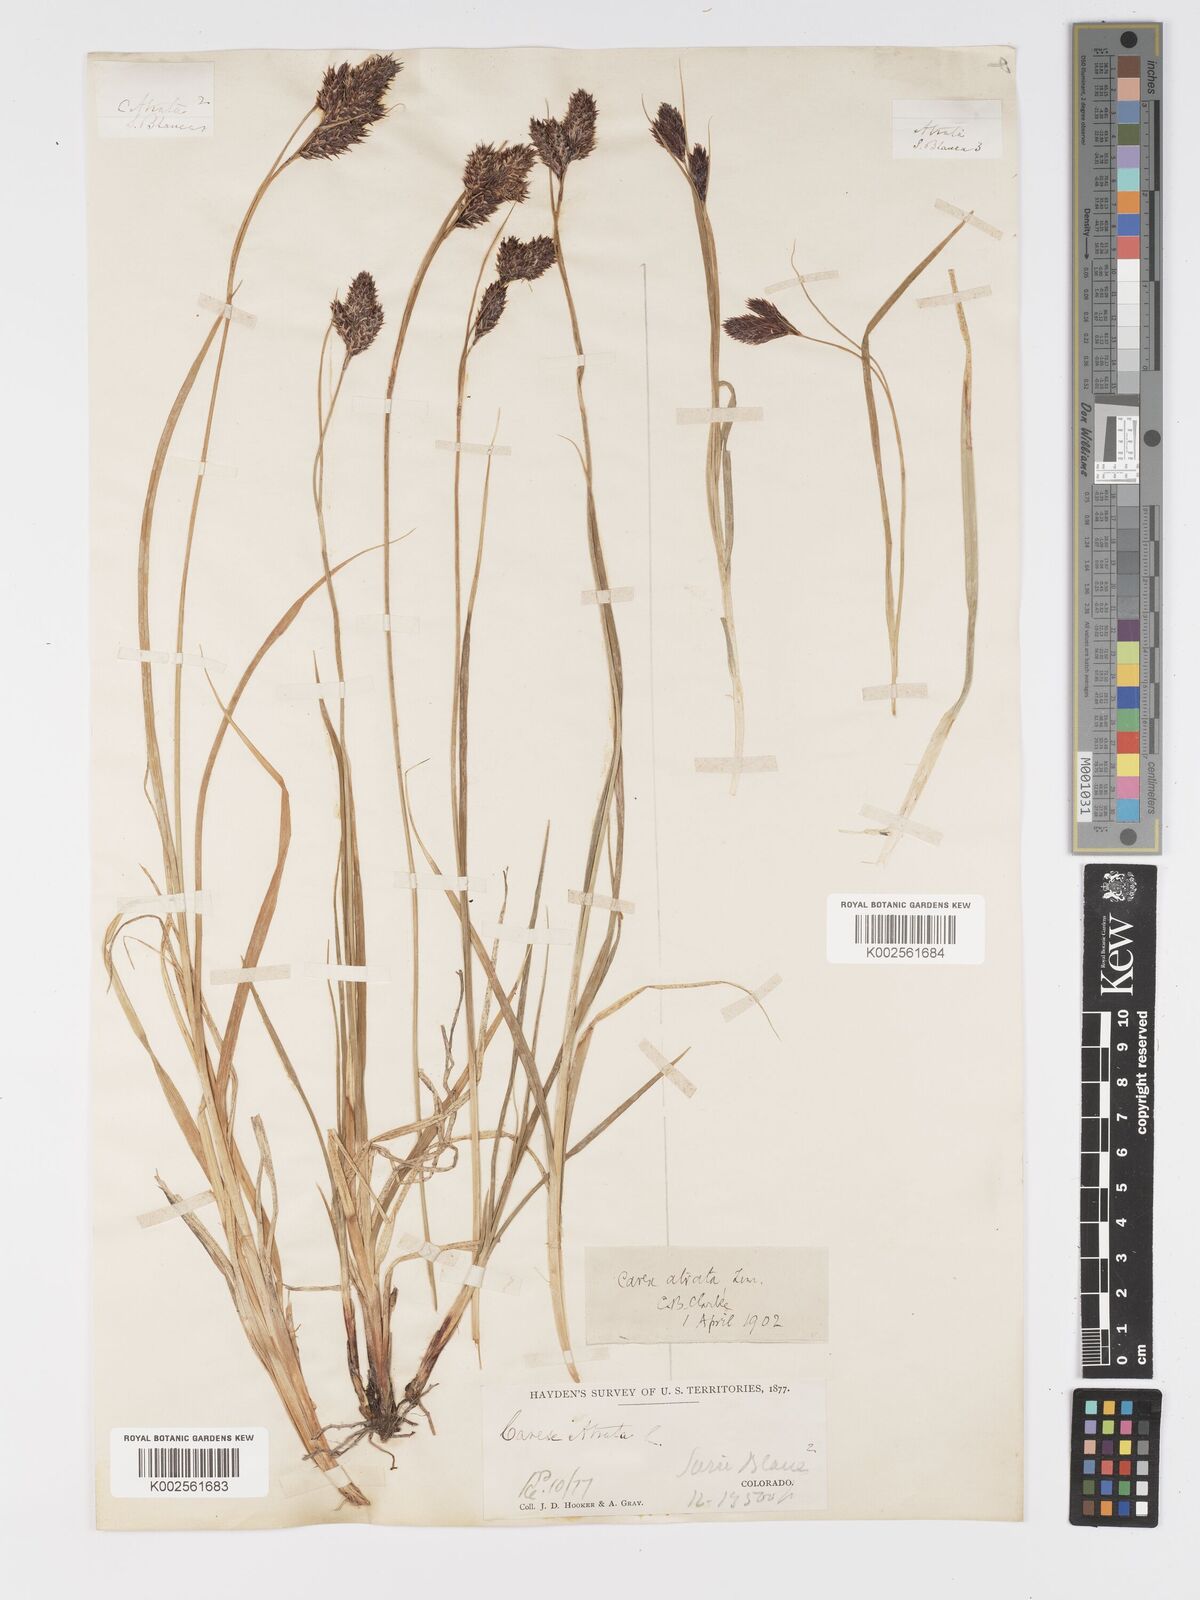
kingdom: Plantae
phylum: Tracheophyta
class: Liliopsida
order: Poales
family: Cyperaceae
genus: Carex
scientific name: Carex chalciolepis
